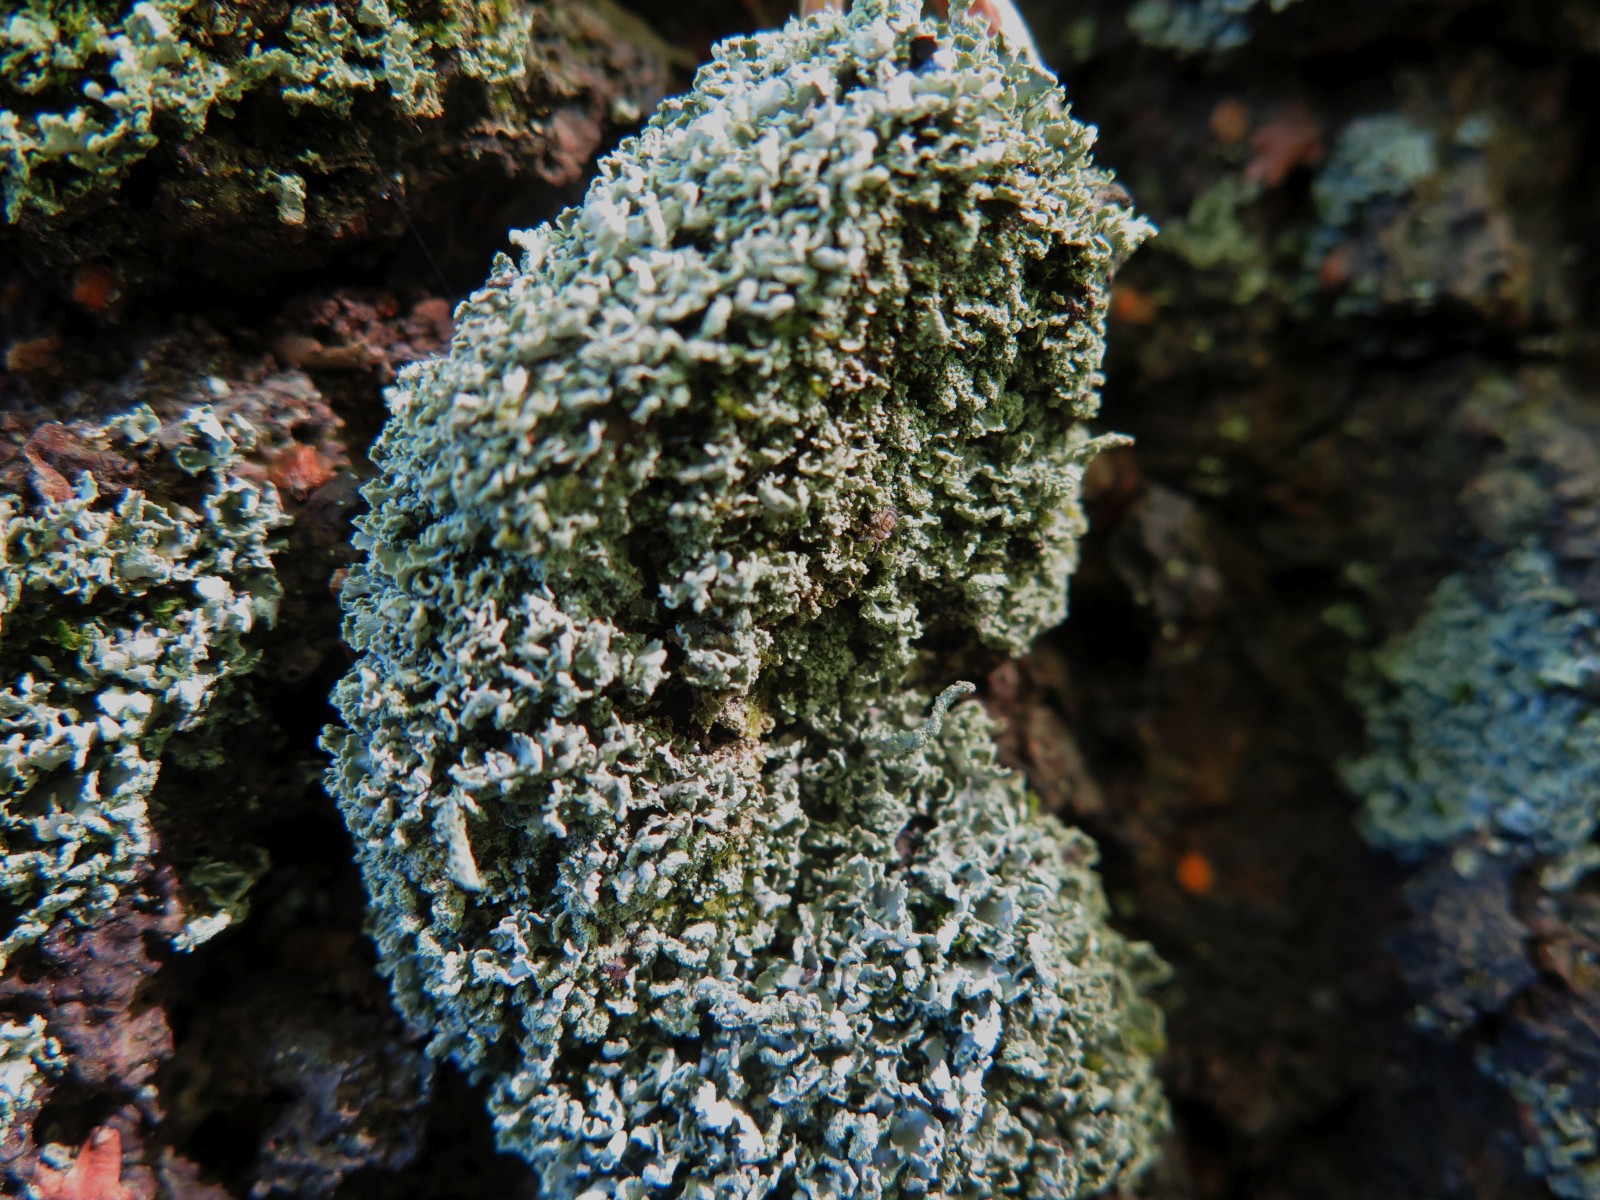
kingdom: Fungi
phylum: Ascomycota
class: Lecanoromycetes
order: Lecanorales
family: Cladoniaceae
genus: Cladonia
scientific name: Cladonia coniocraea
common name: træfods-bægerlav
